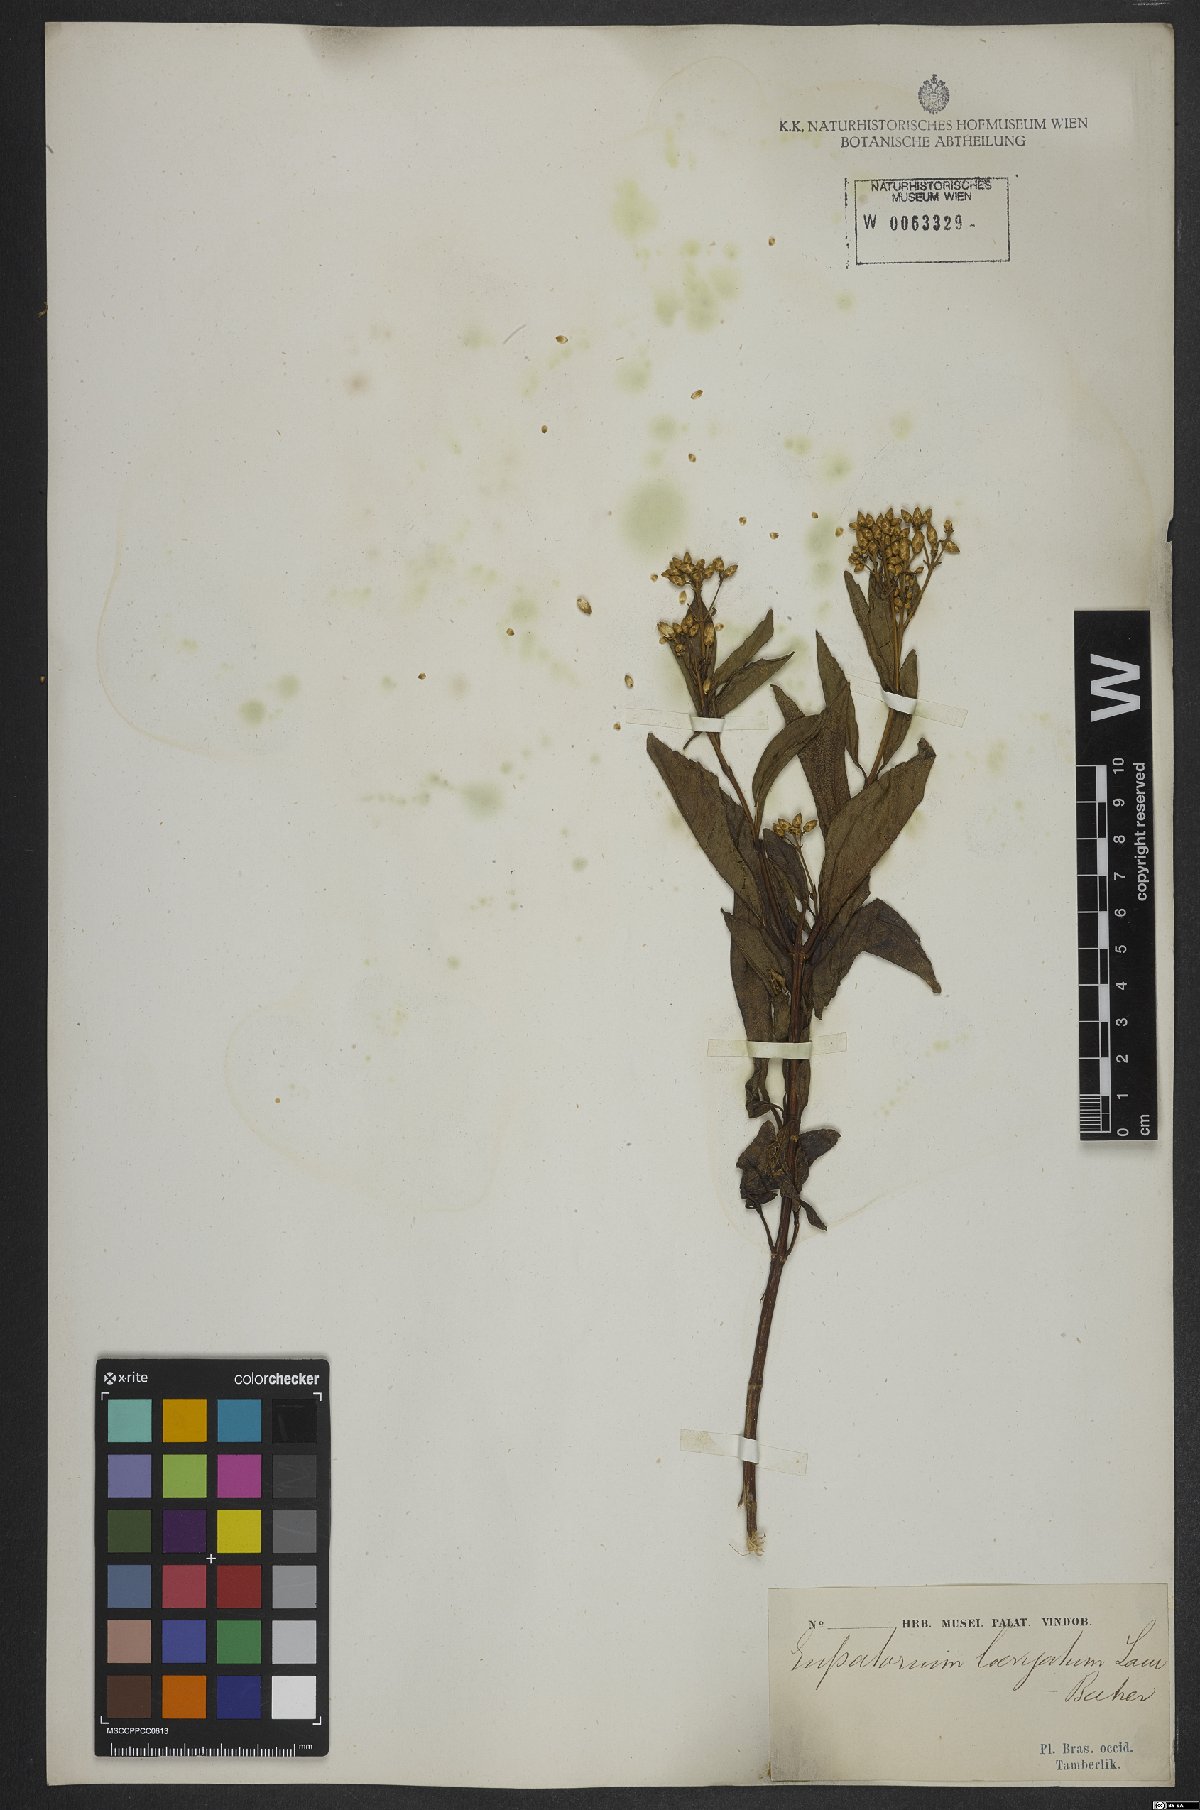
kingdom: Plantae
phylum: Tracheophyta
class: Magnoliopsida
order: Asterales
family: Asteraceae
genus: Eupatorium
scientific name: Eupatorium laevigatum
